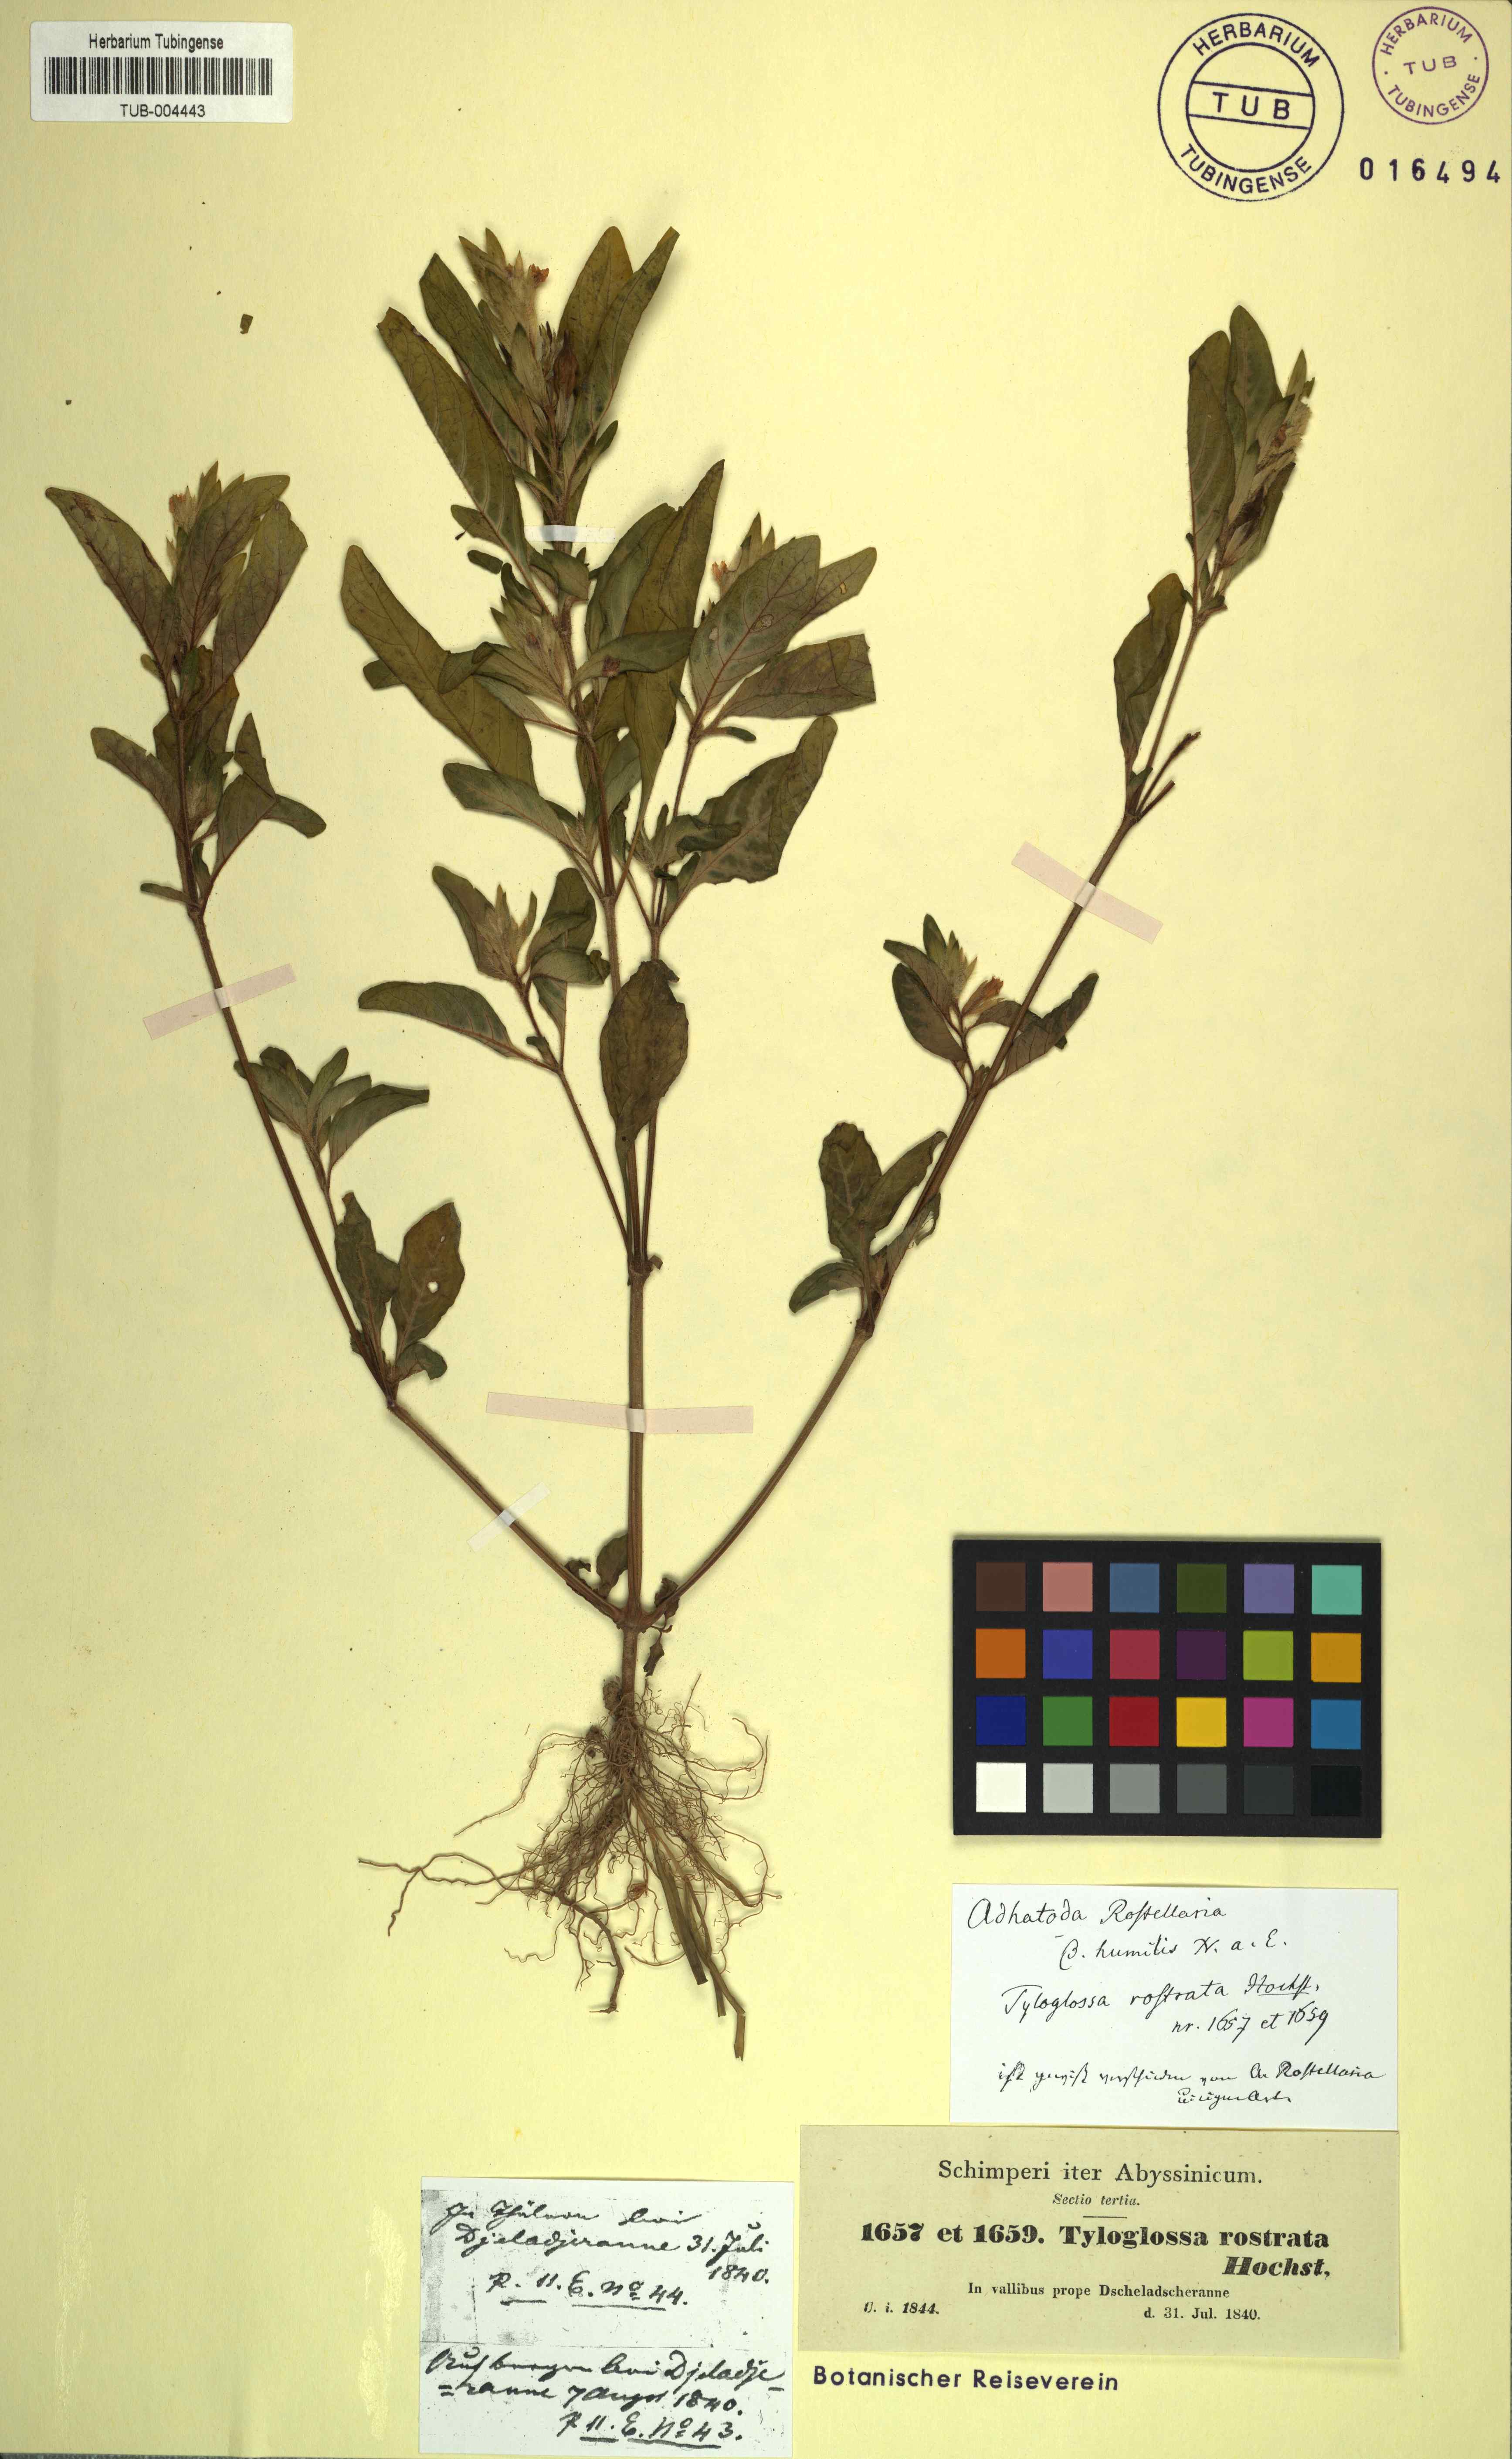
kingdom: Plantae
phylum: Tracheophyta
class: Magnoliopsida
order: Lamiales
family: Acanthaceae
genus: Justicia
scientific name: Justicia schimperiana
